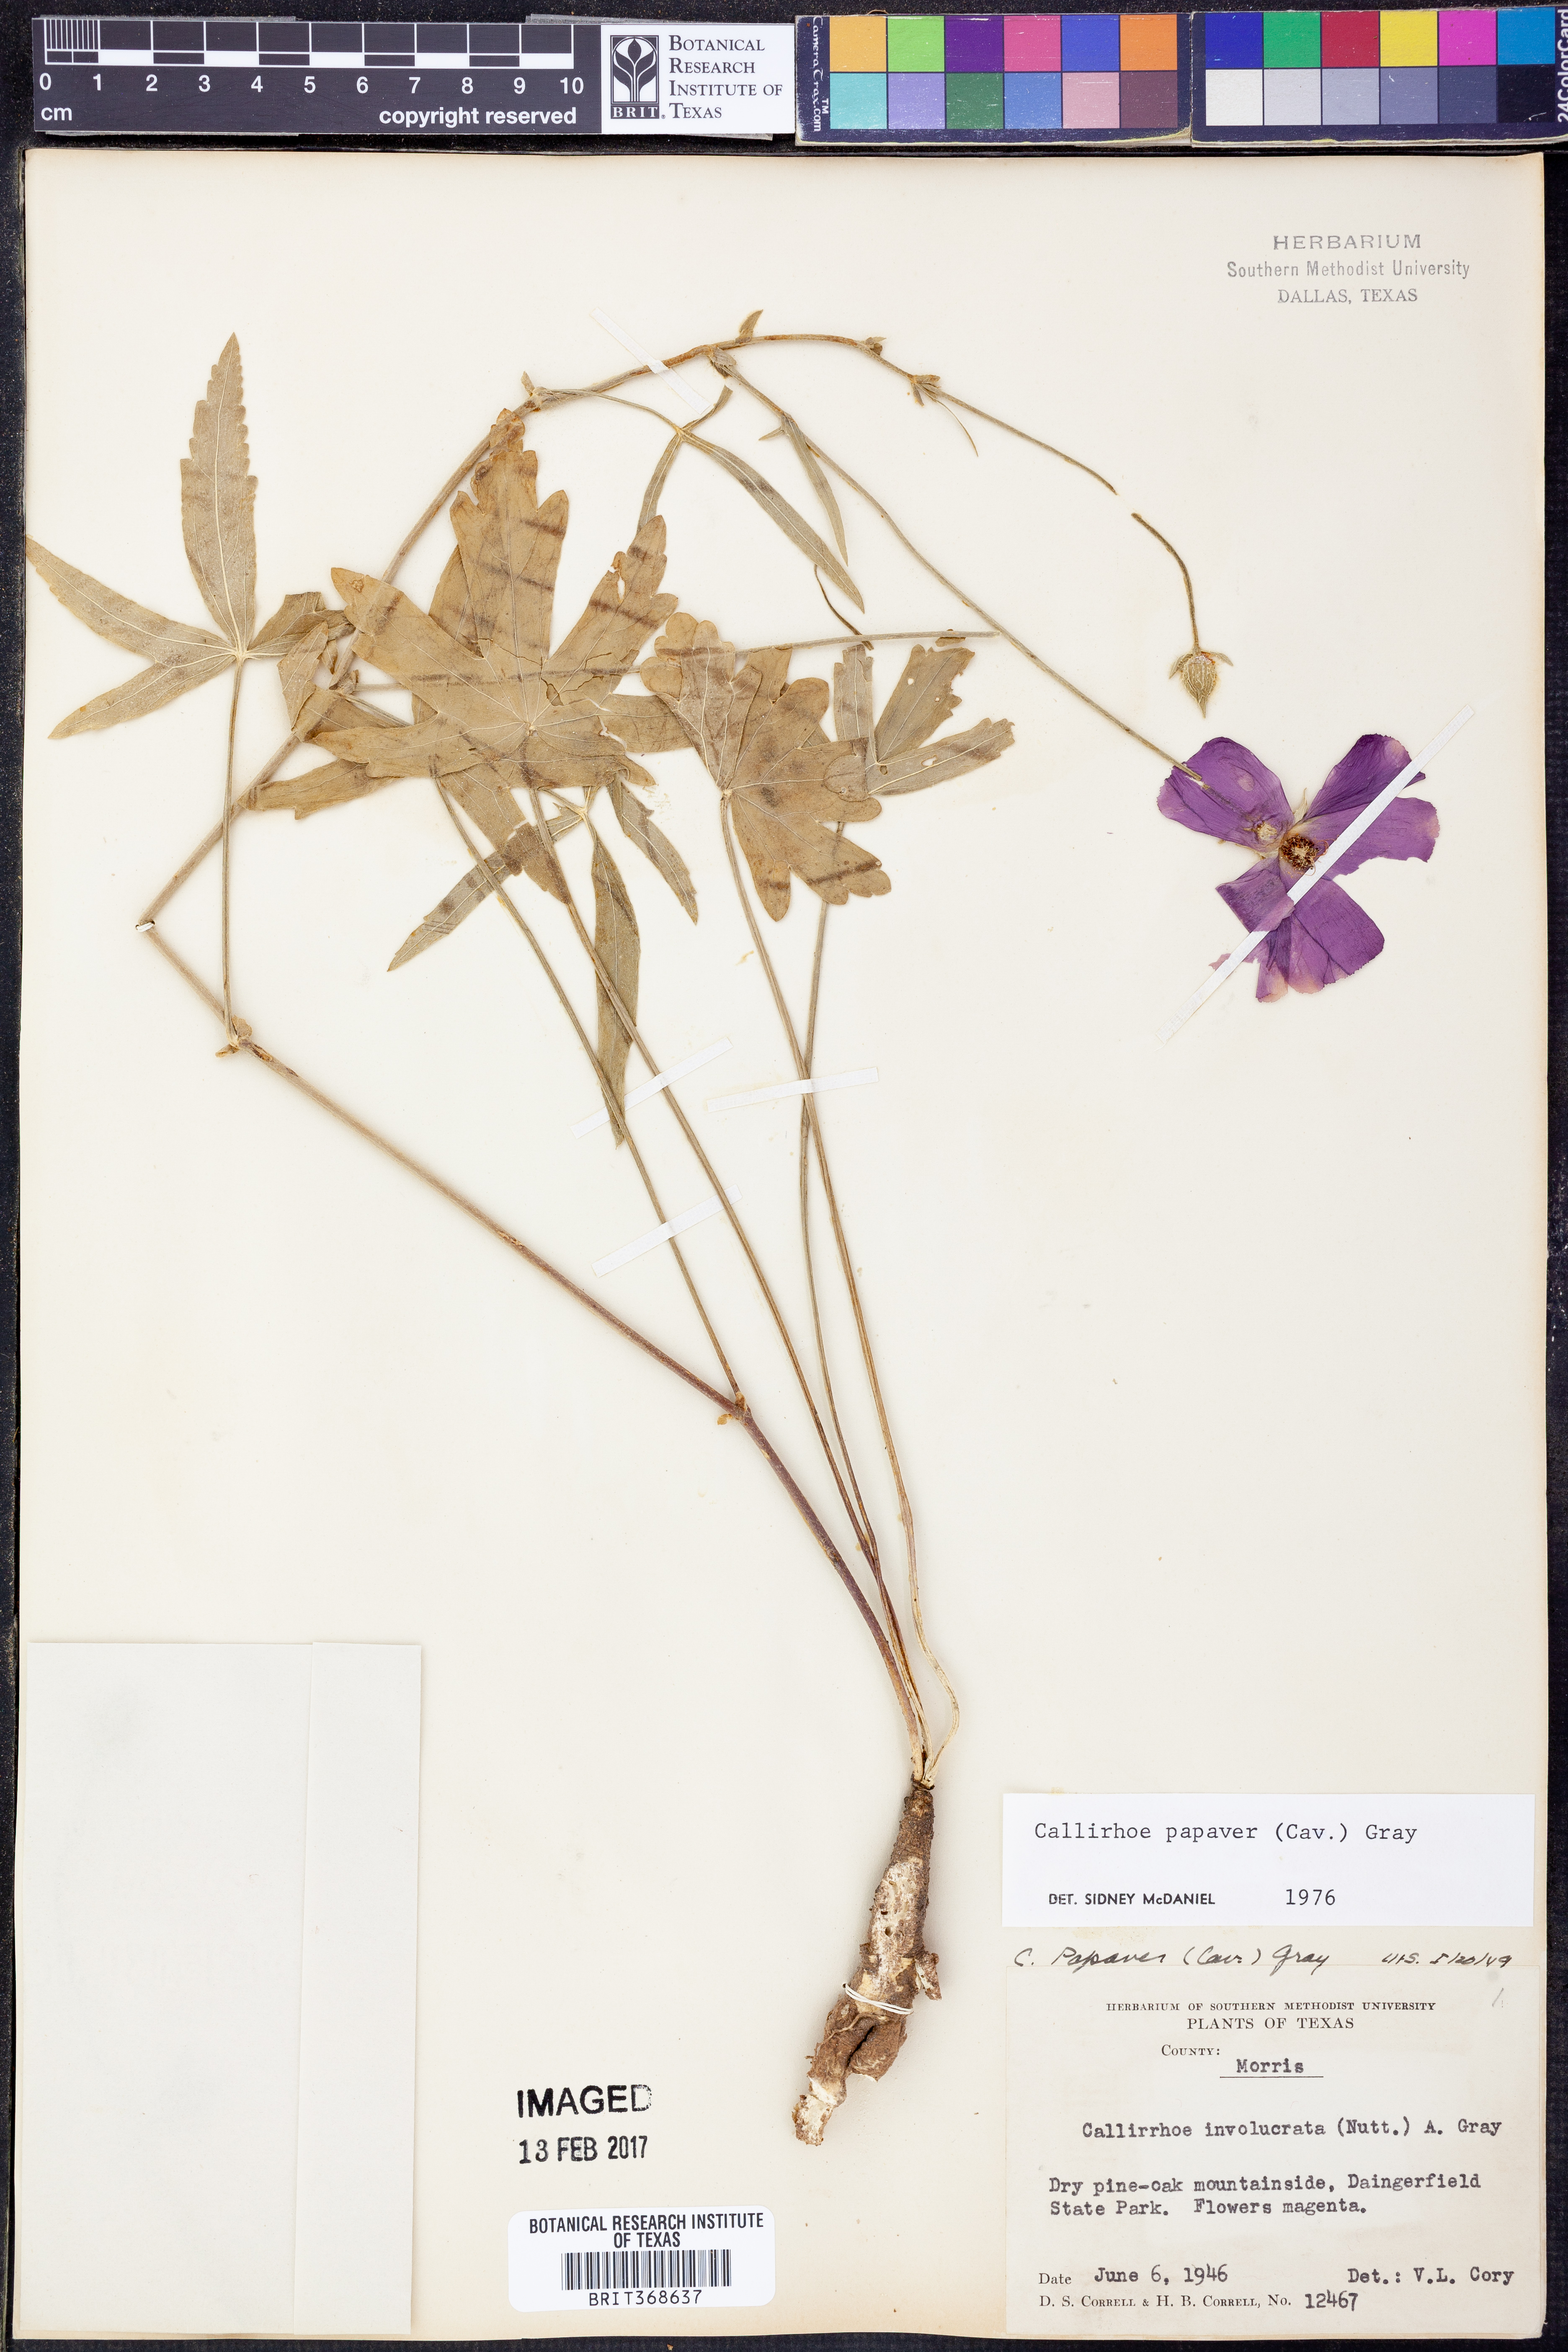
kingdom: Plantae
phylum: Tracheophyta
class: Magnoliopsida
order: Malvales
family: Malvaceae
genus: Callirhoe
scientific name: Callirhoe papaver
